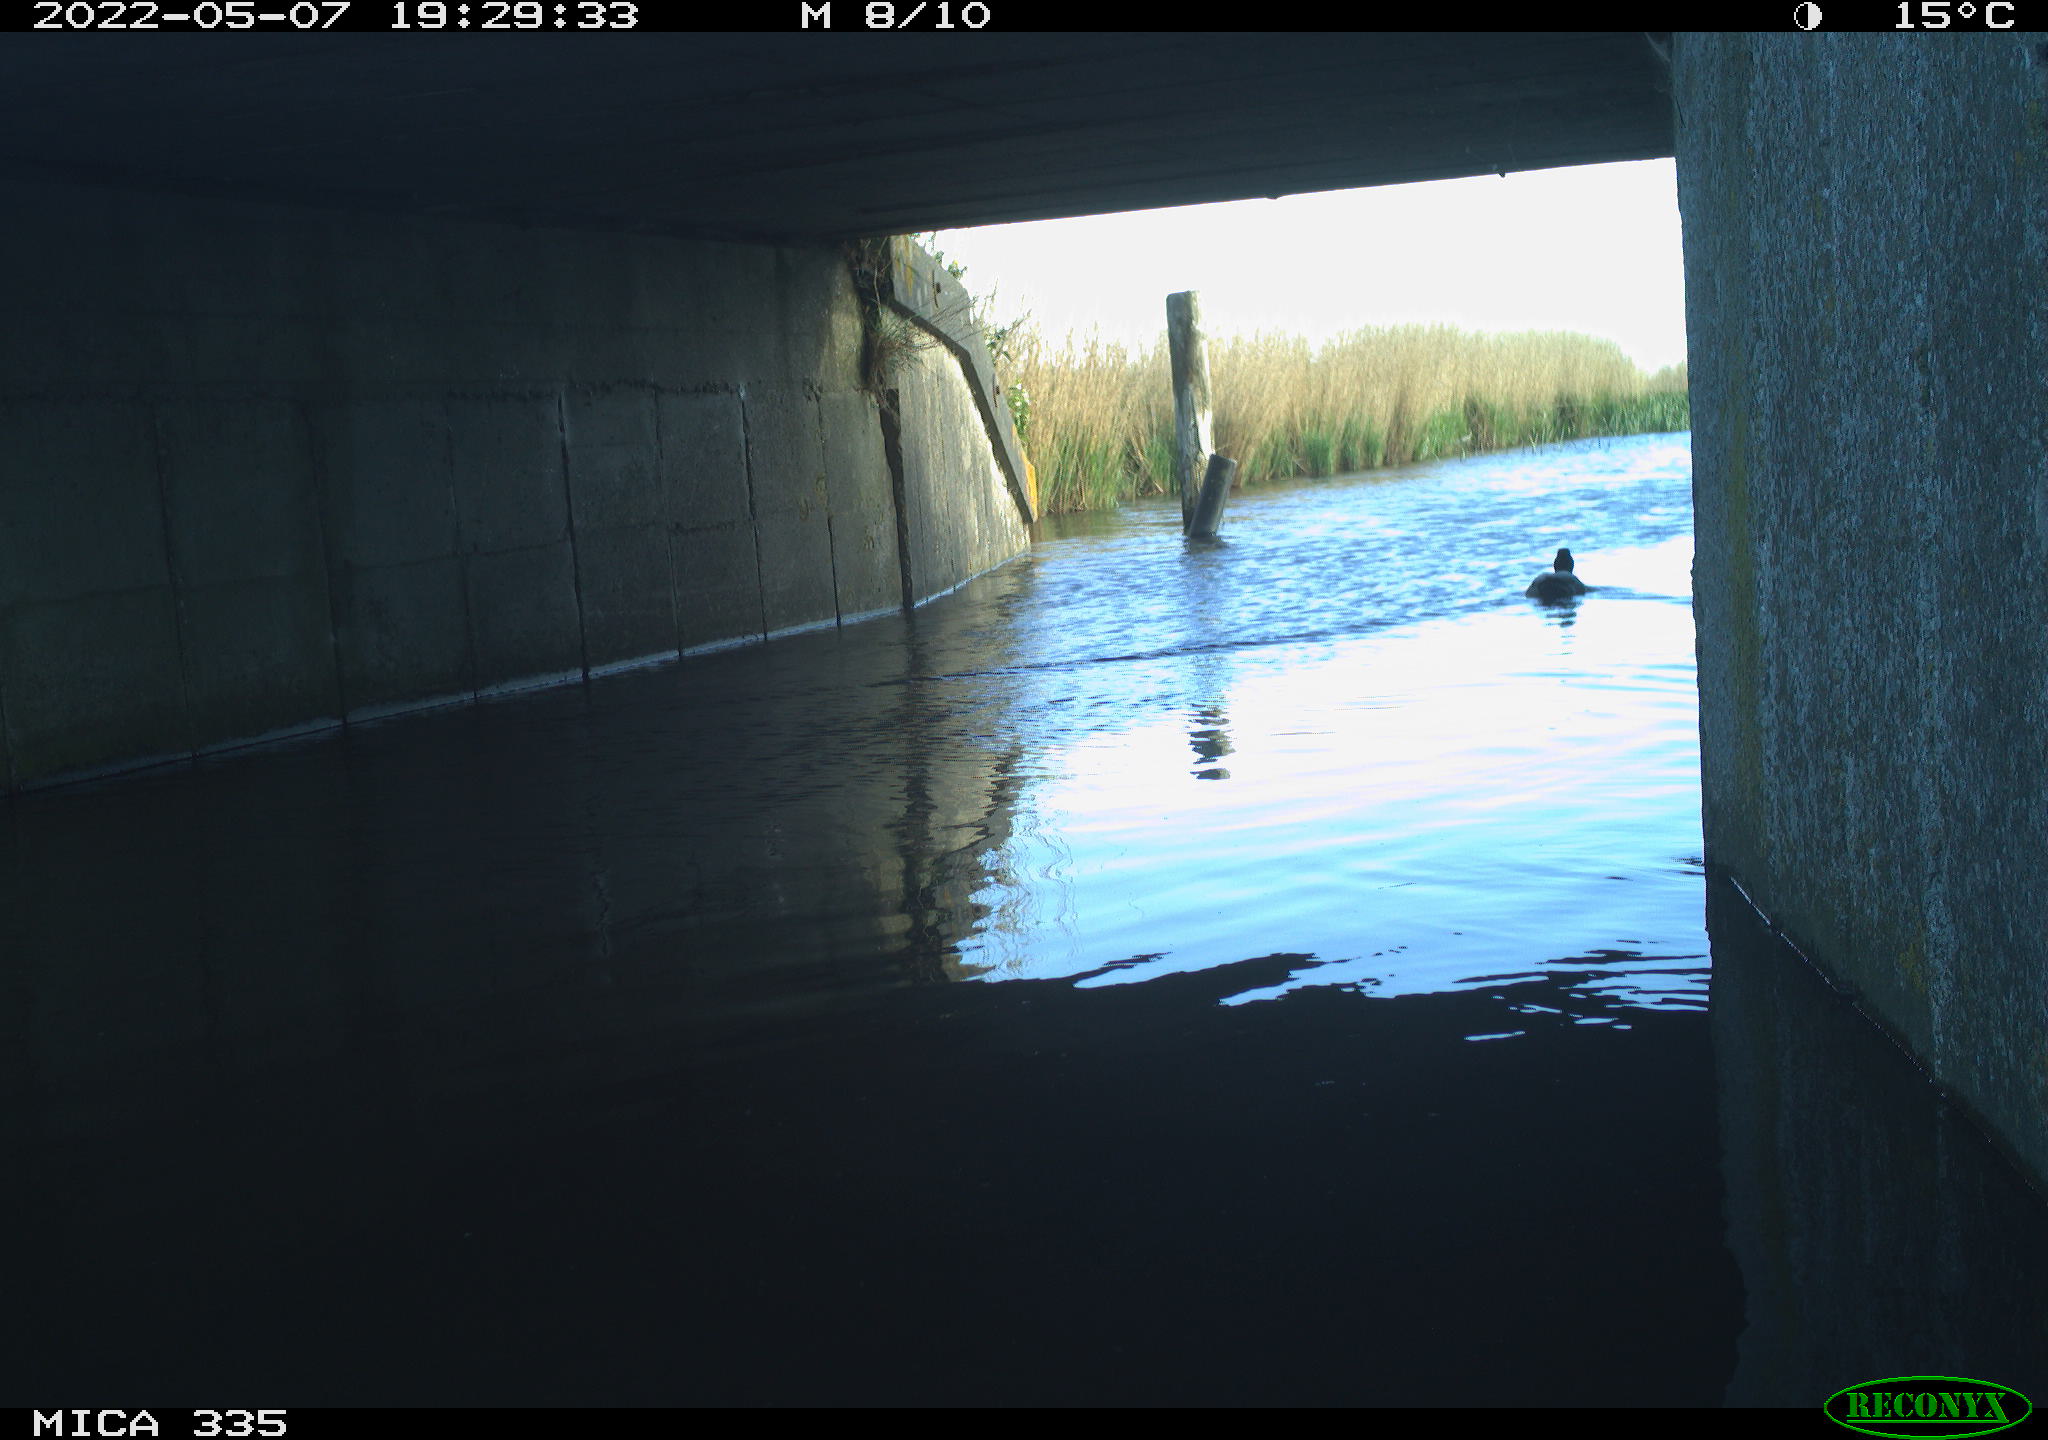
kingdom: Animalia
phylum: Chordata
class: Aves
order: Anseriformes
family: Anatidae
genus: Anas
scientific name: Anas platyrhynchos
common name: Mallard
